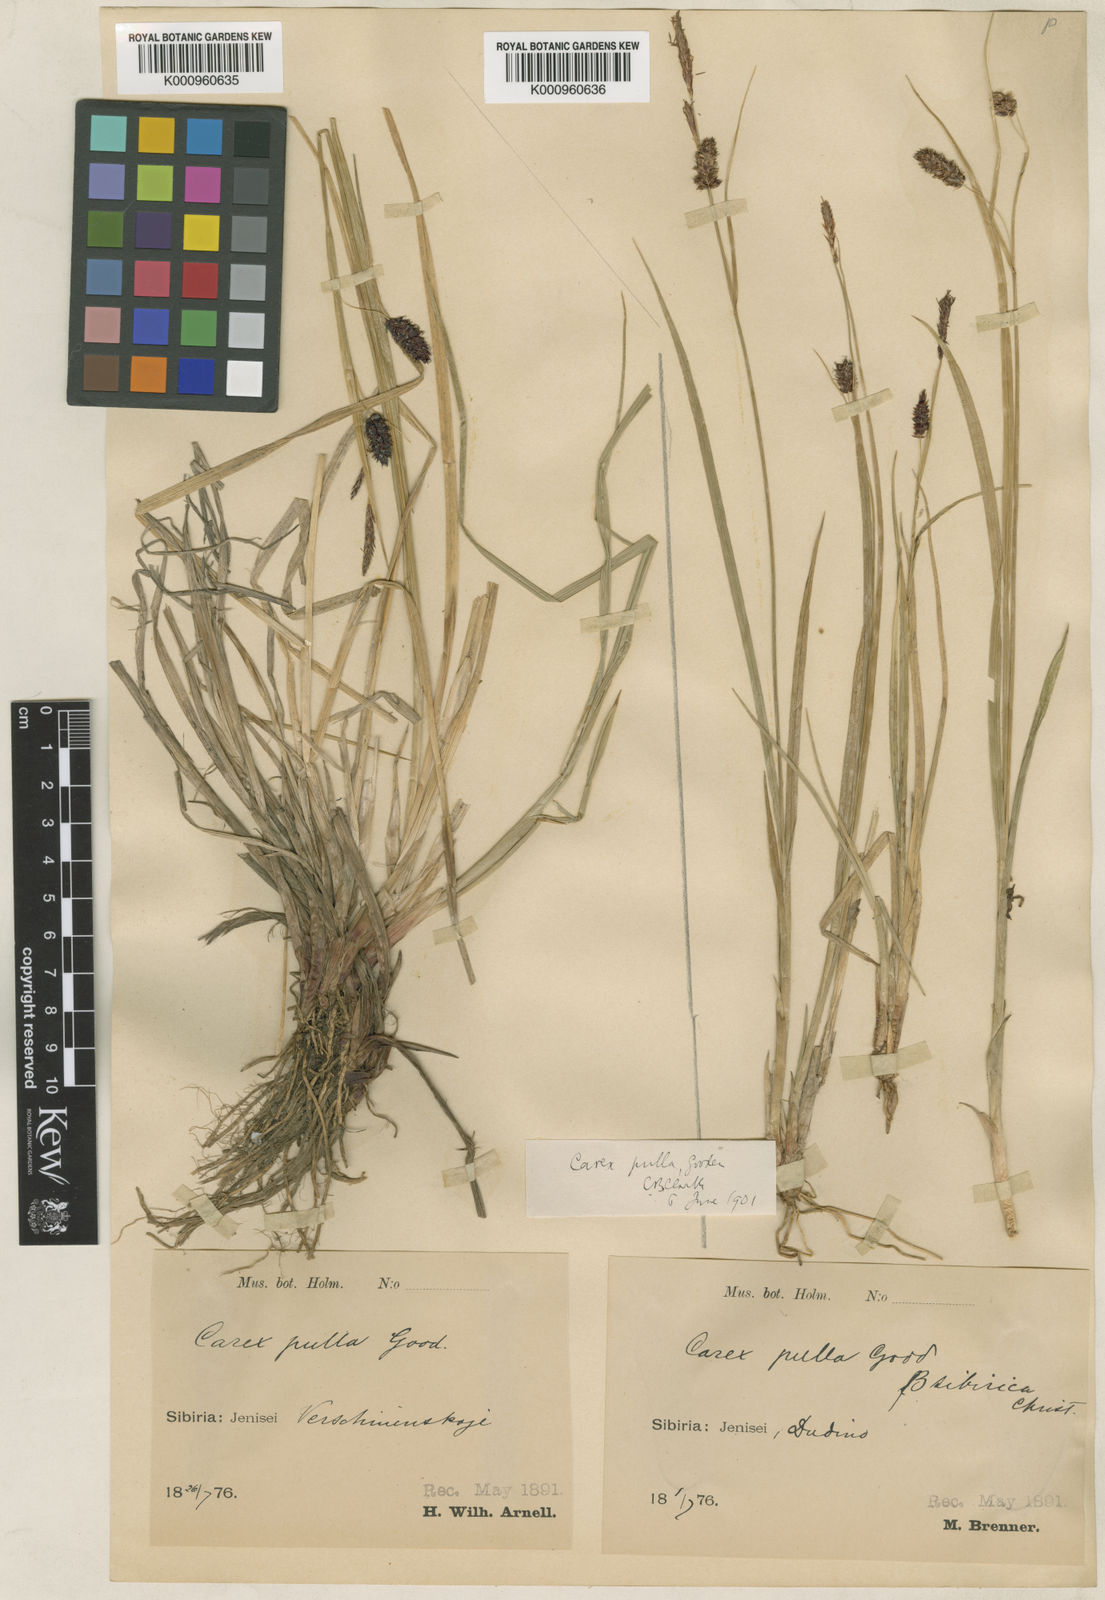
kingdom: Plantae
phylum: Tracheophyta
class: Liliopsida
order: Poales
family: Cyperaceae
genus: Carex
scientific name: Carex vesicaria
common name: Bladder-sedge
